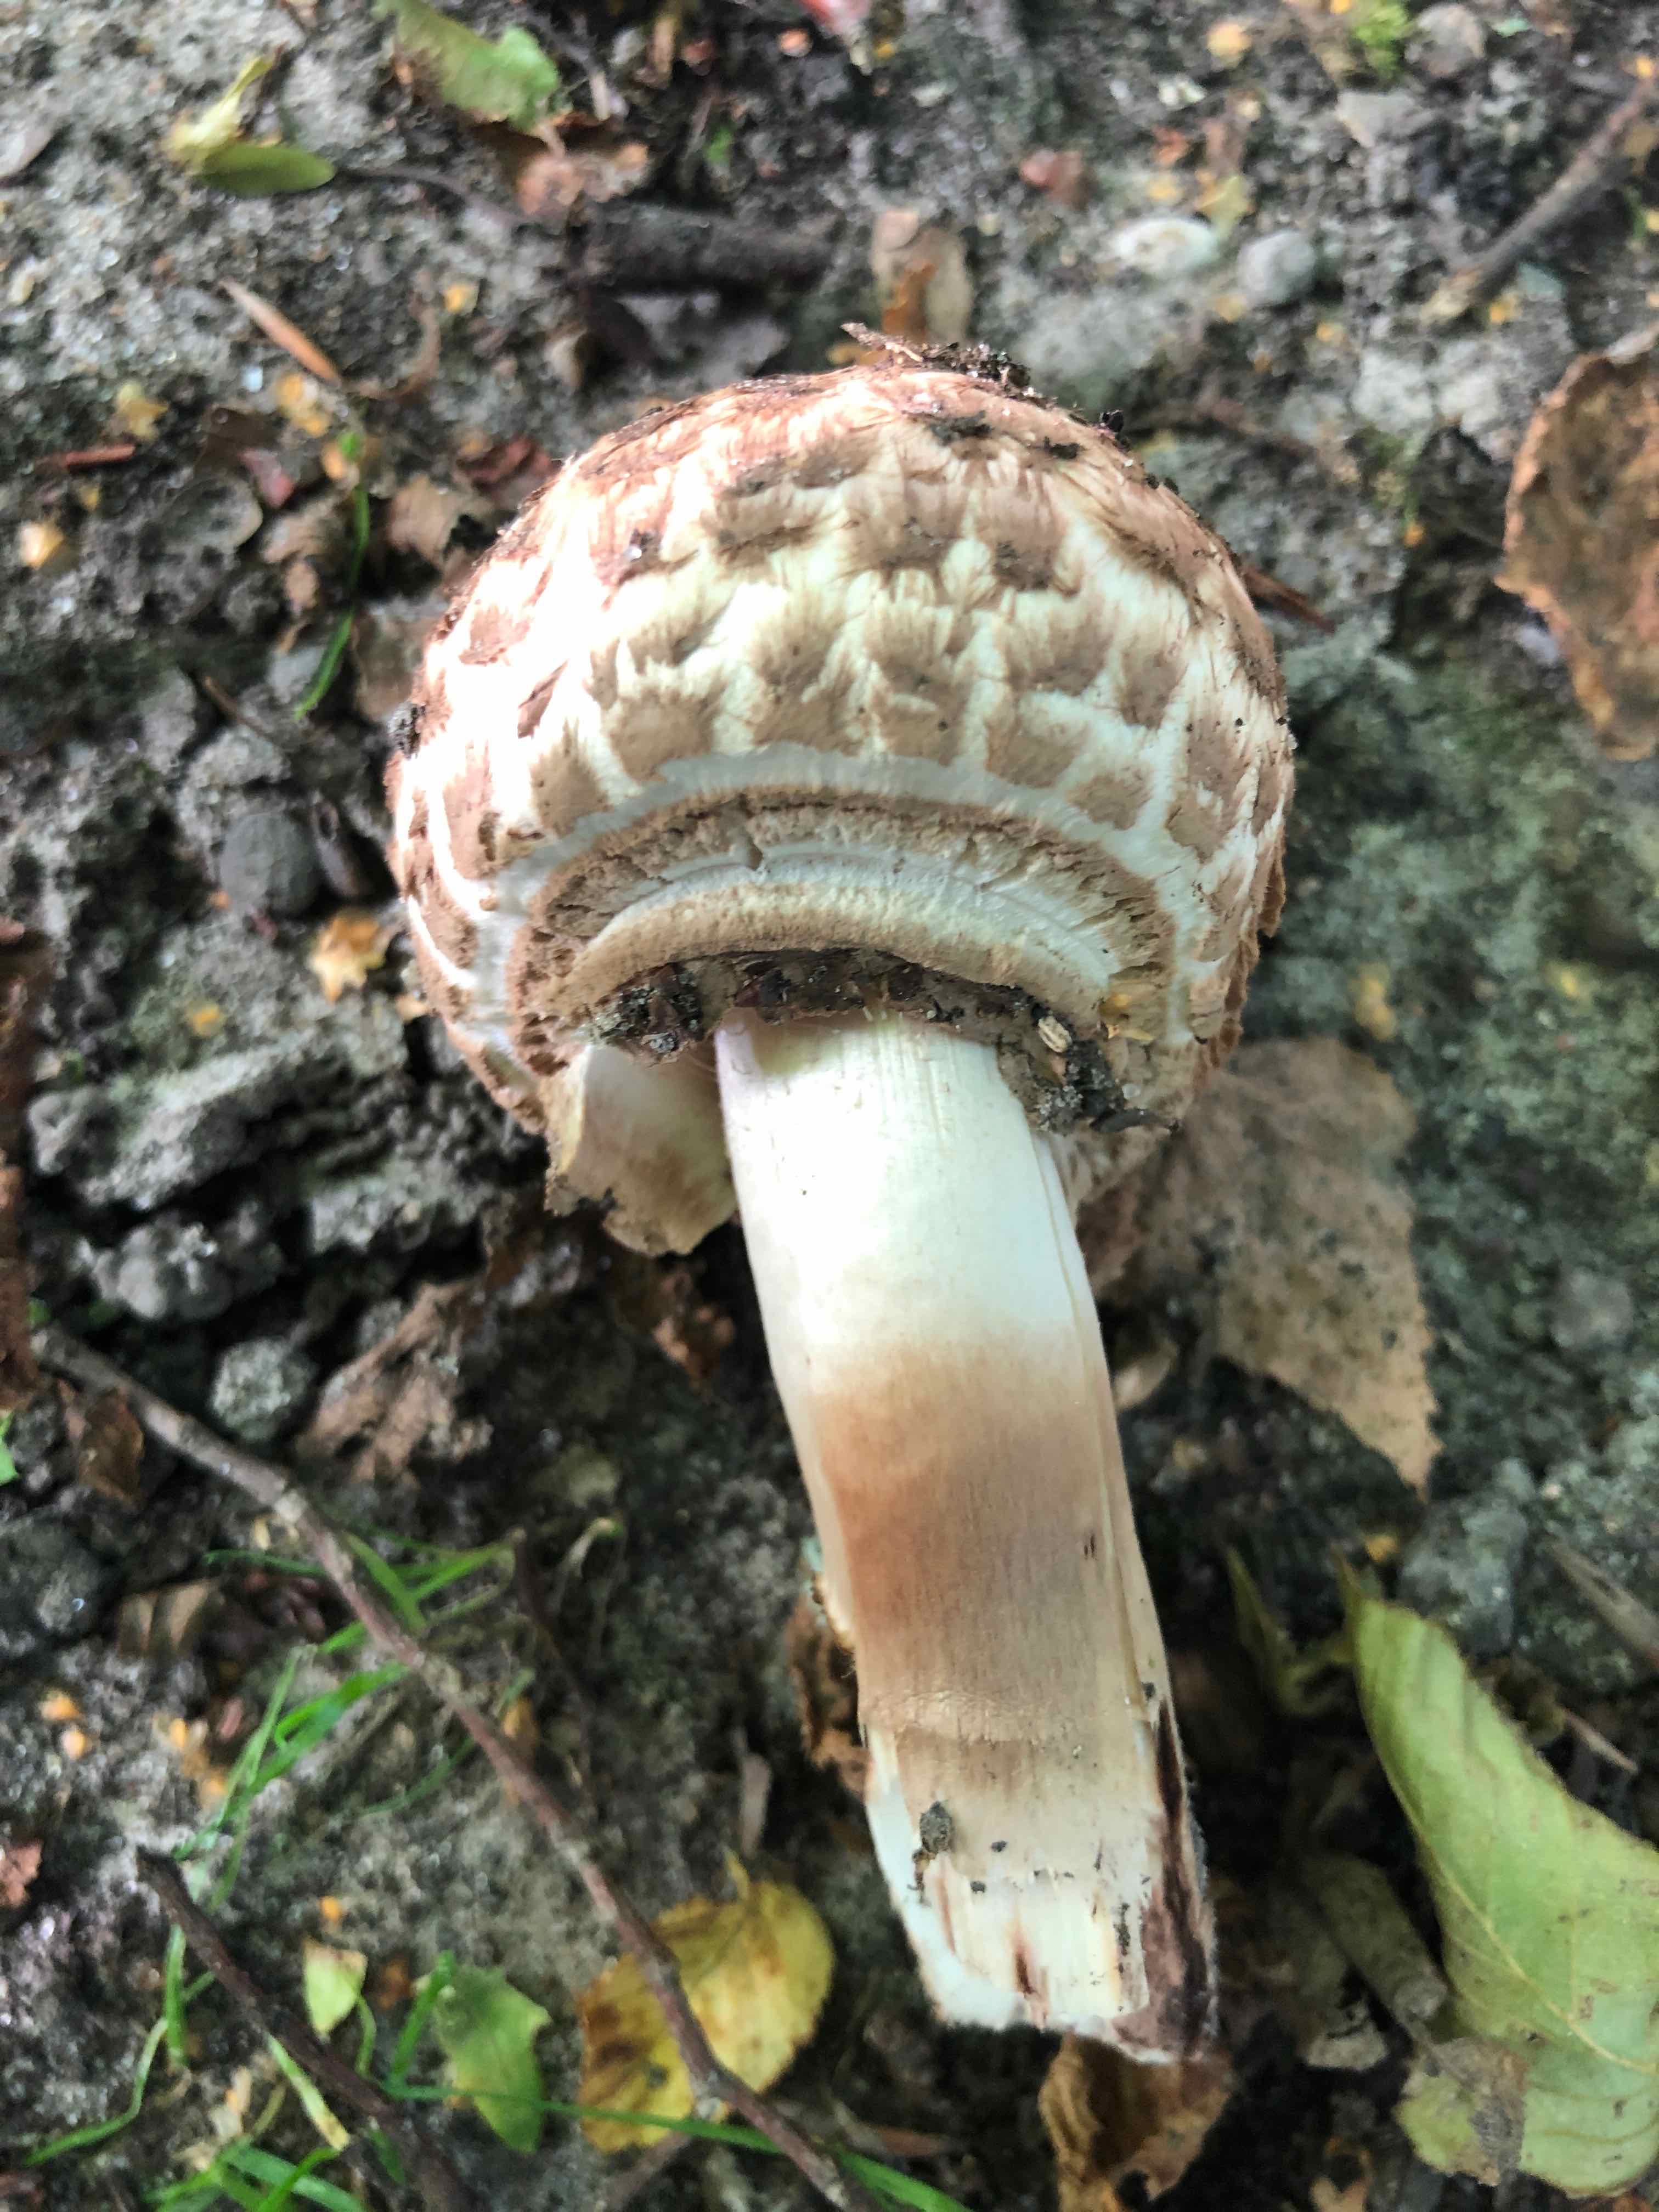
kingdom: Fungi
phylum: Basidiomycota
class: Agaricomycetes
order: Agaricales
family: Agaricaceae
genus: Agaricus
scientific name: Agaricus bohusii
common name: krumskællet champignon
